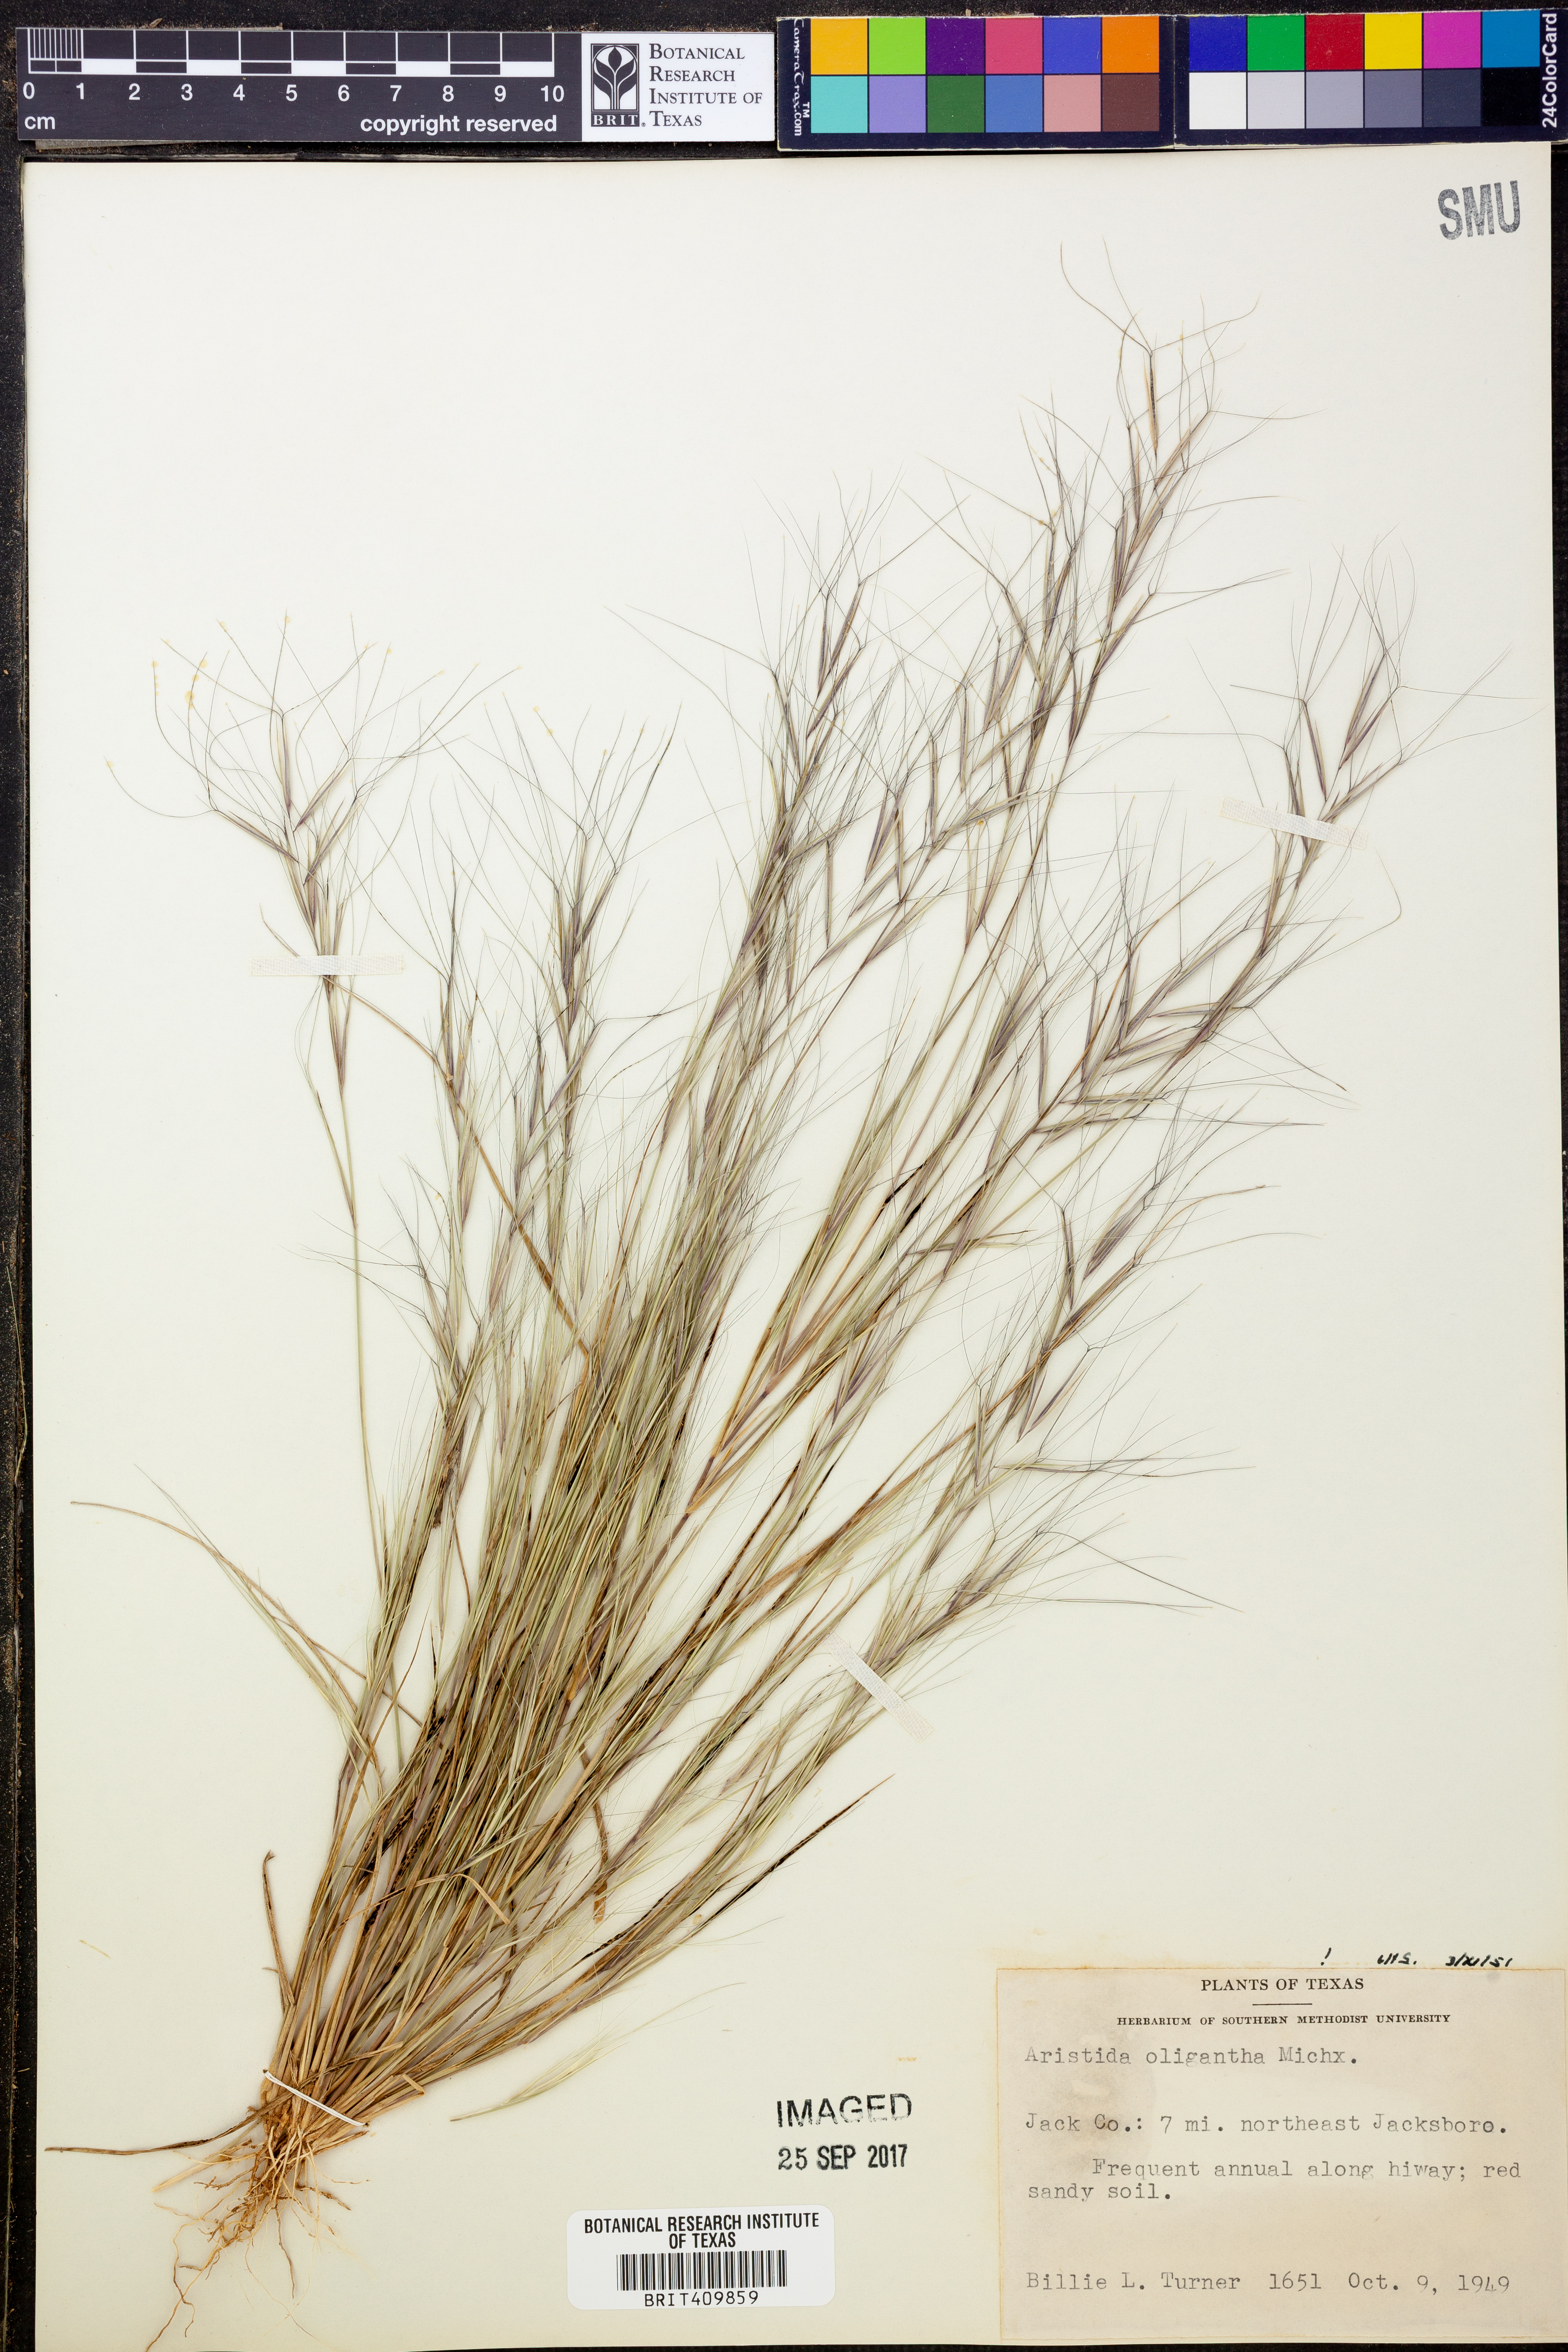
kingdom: Plantae
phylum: Tracheophyta
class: Liliopsida
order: Poales
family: Poaceae
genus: Aristida
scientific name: Aristida oligantha
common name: Few-flowered aristida
